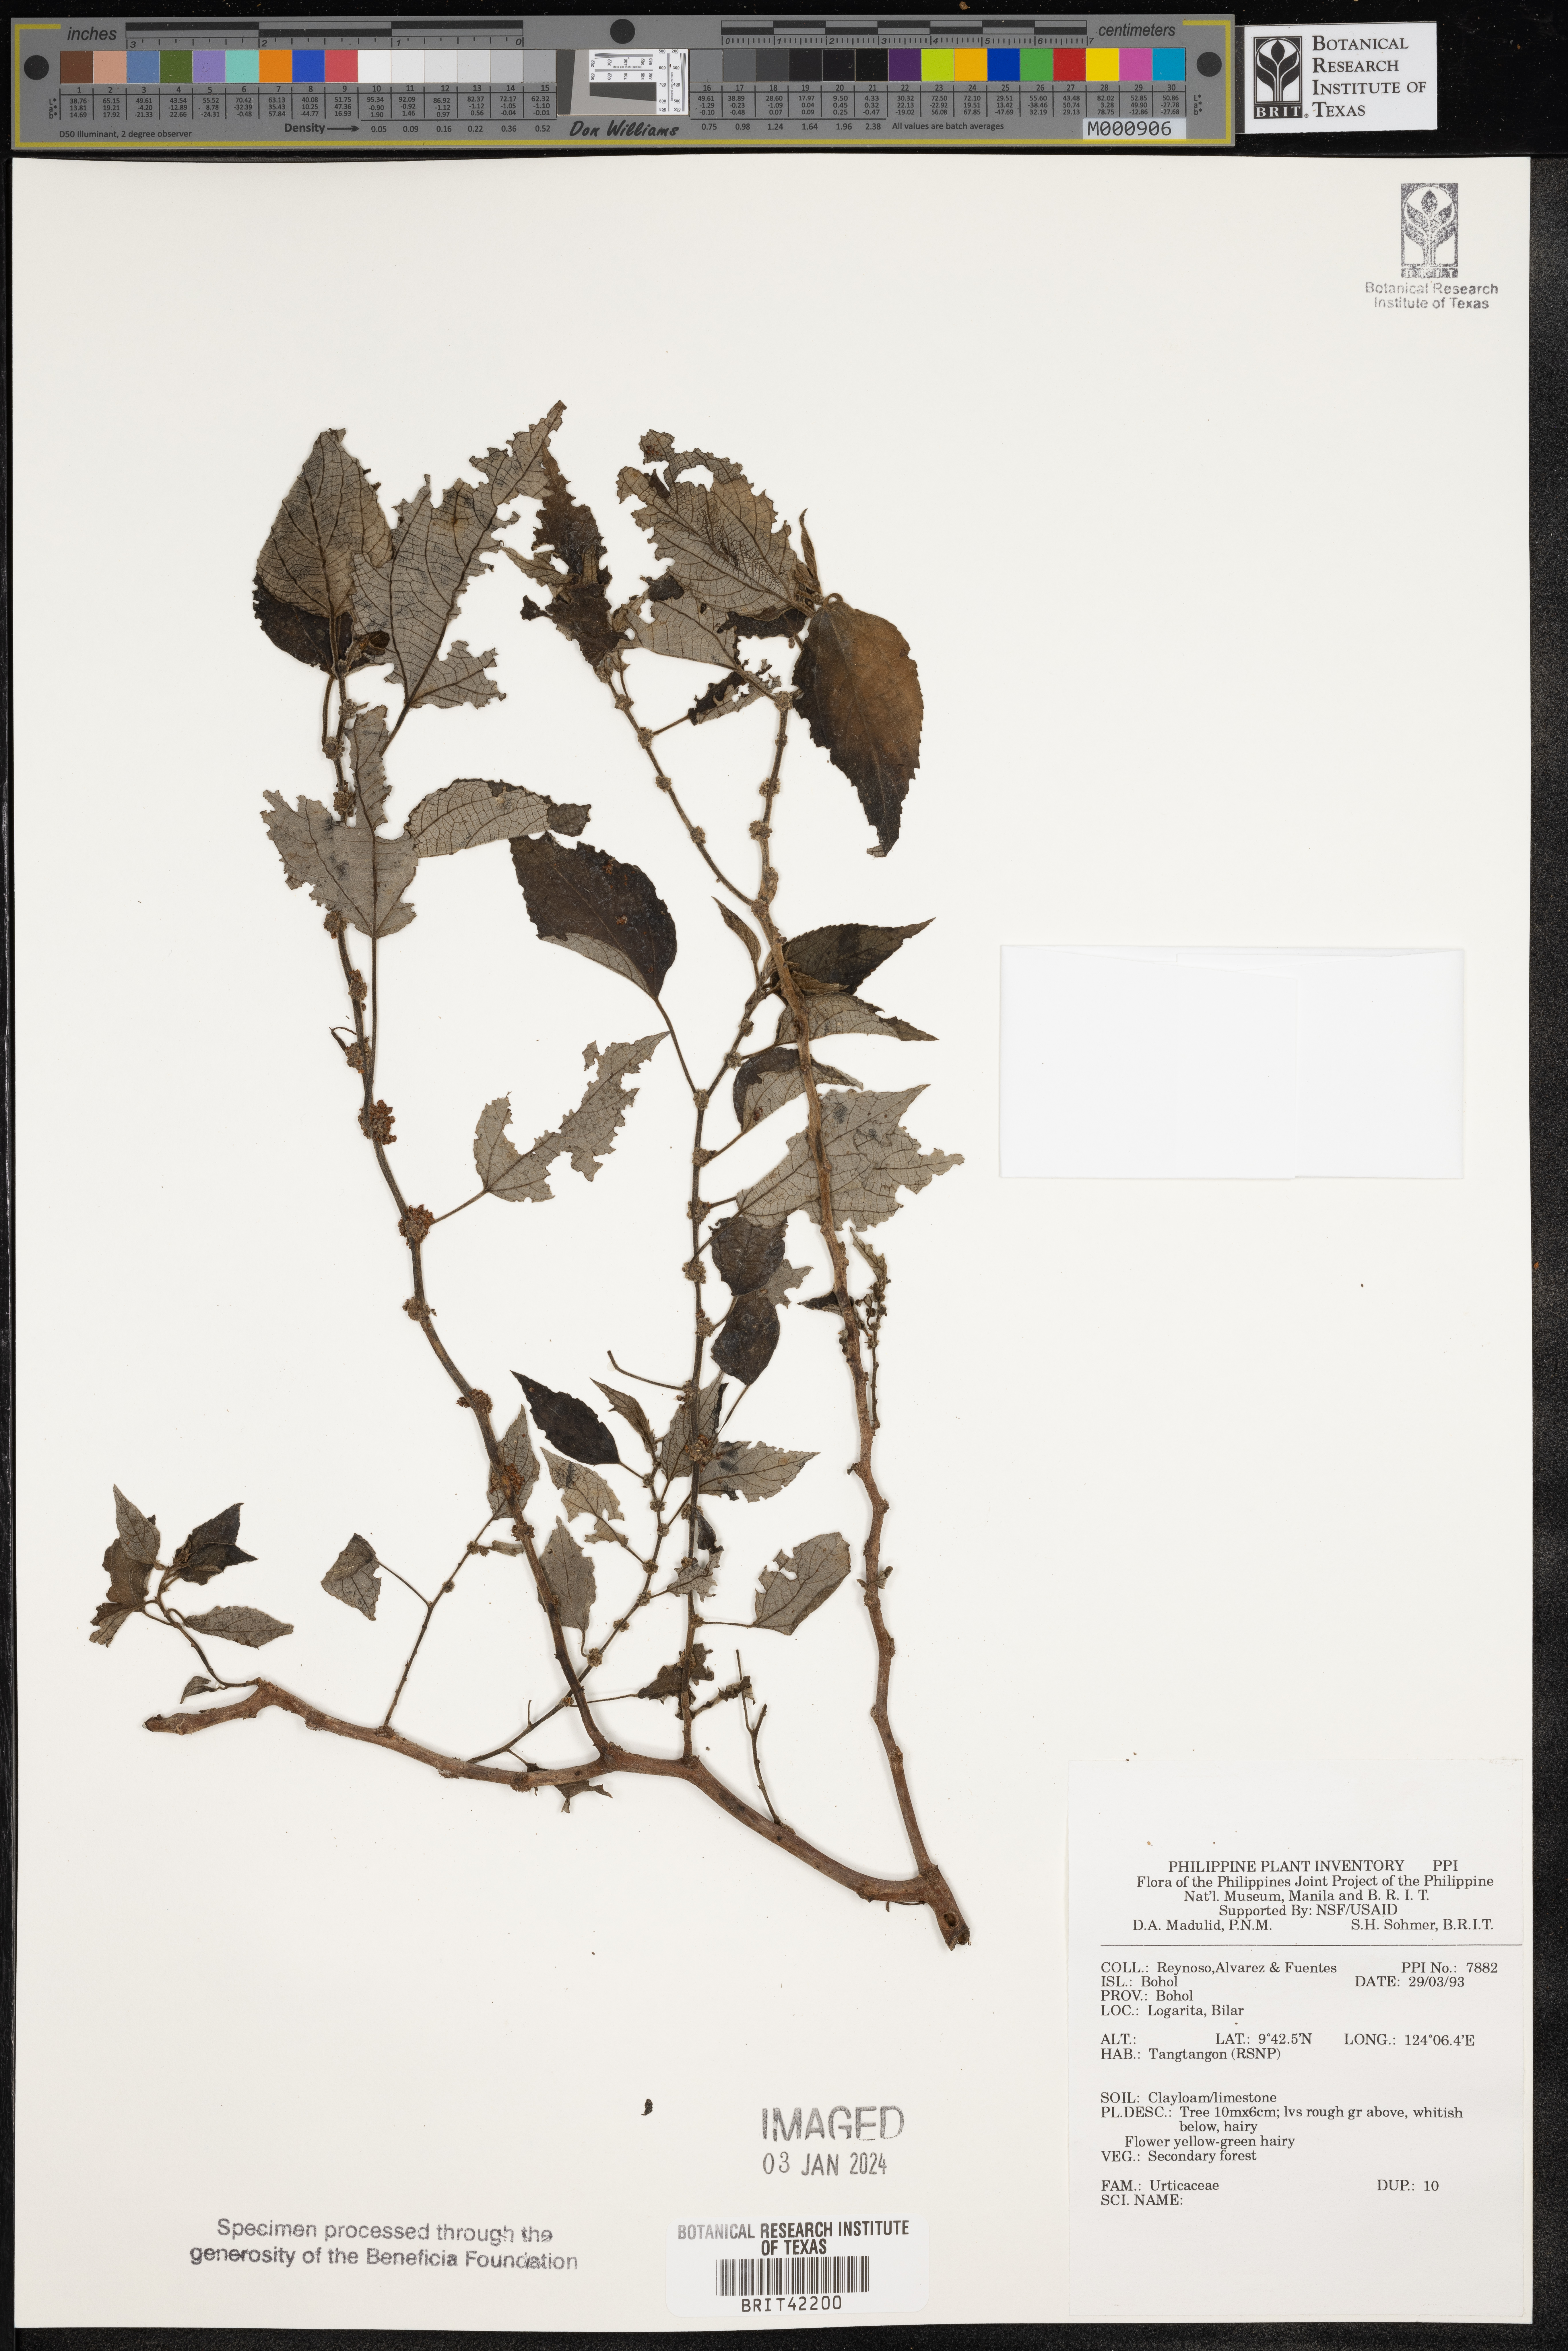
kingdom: Plantae
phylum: Tracheophyta
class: Magnoliopsida
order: Rosales
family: Urticaceae
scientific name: Urticaceae
